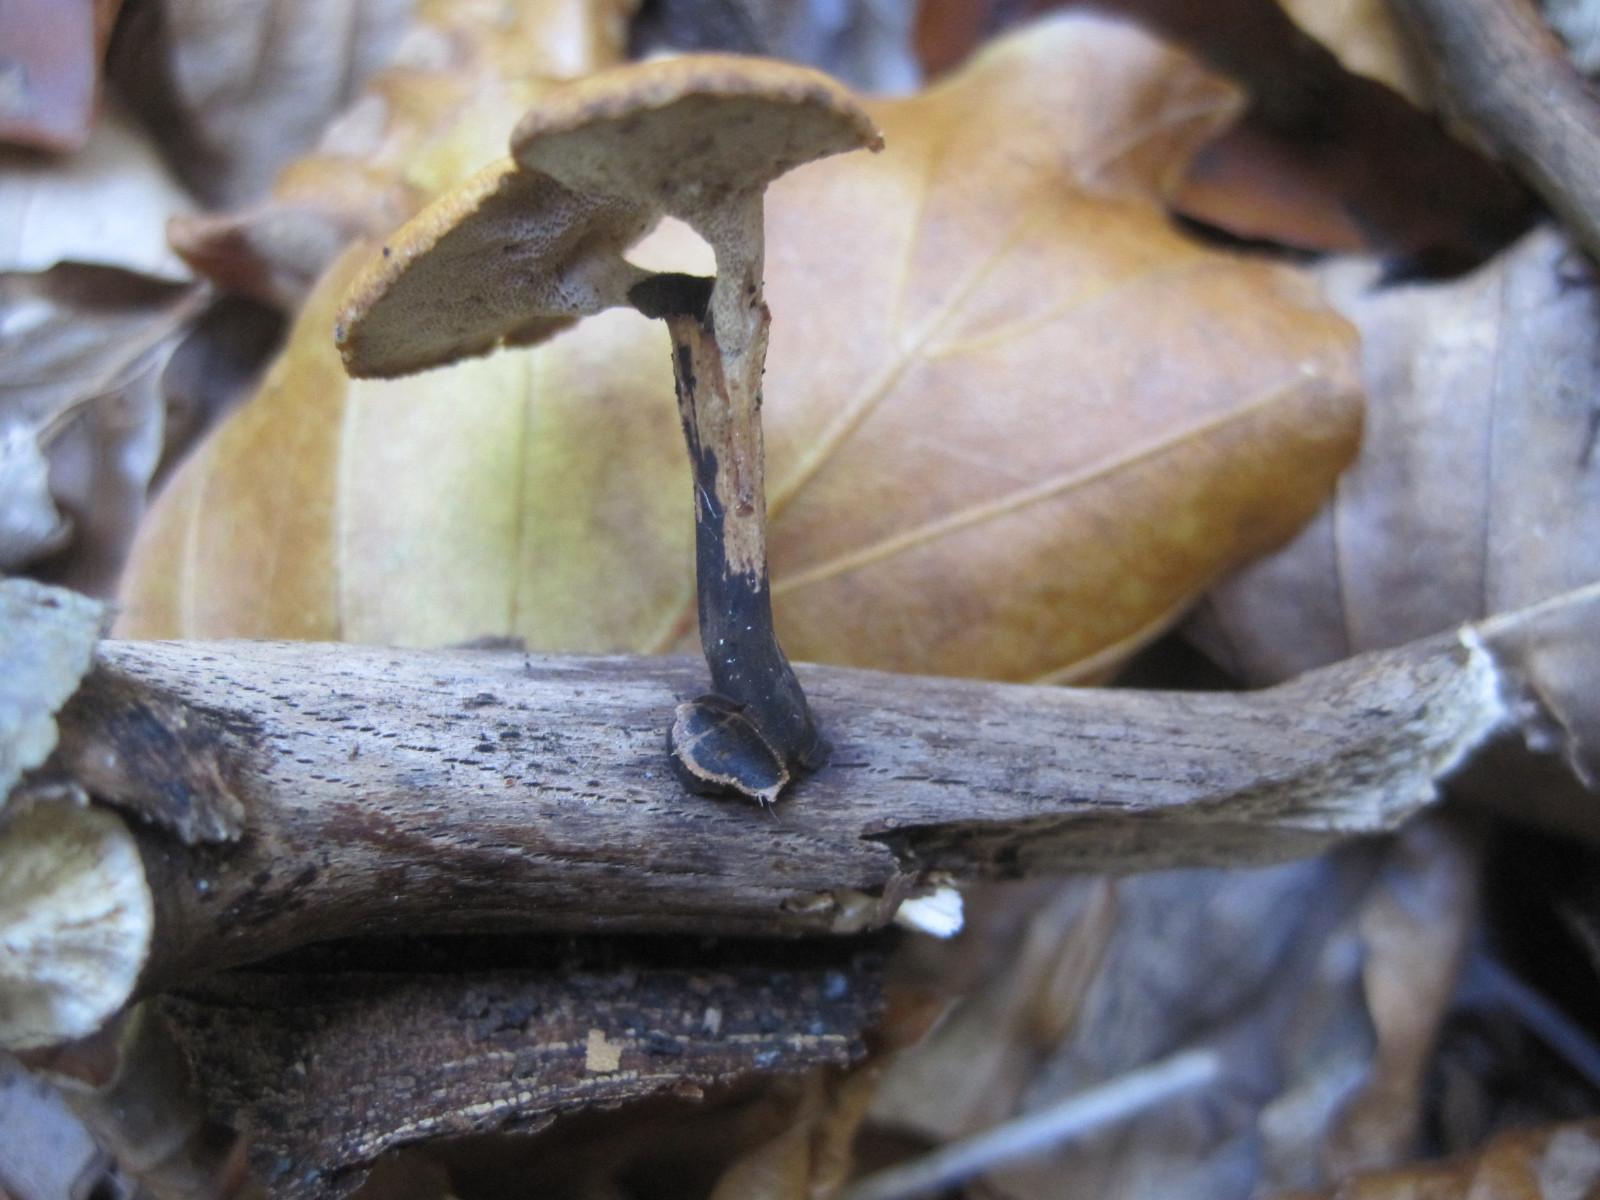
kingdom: Fungi
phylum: Basidiomycota
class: Agaricomycetes
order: Polyporales
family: Polyporaceae
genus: Cerioporus
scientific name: Cerioporus varius
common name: foranderlig stilkporesvamp
